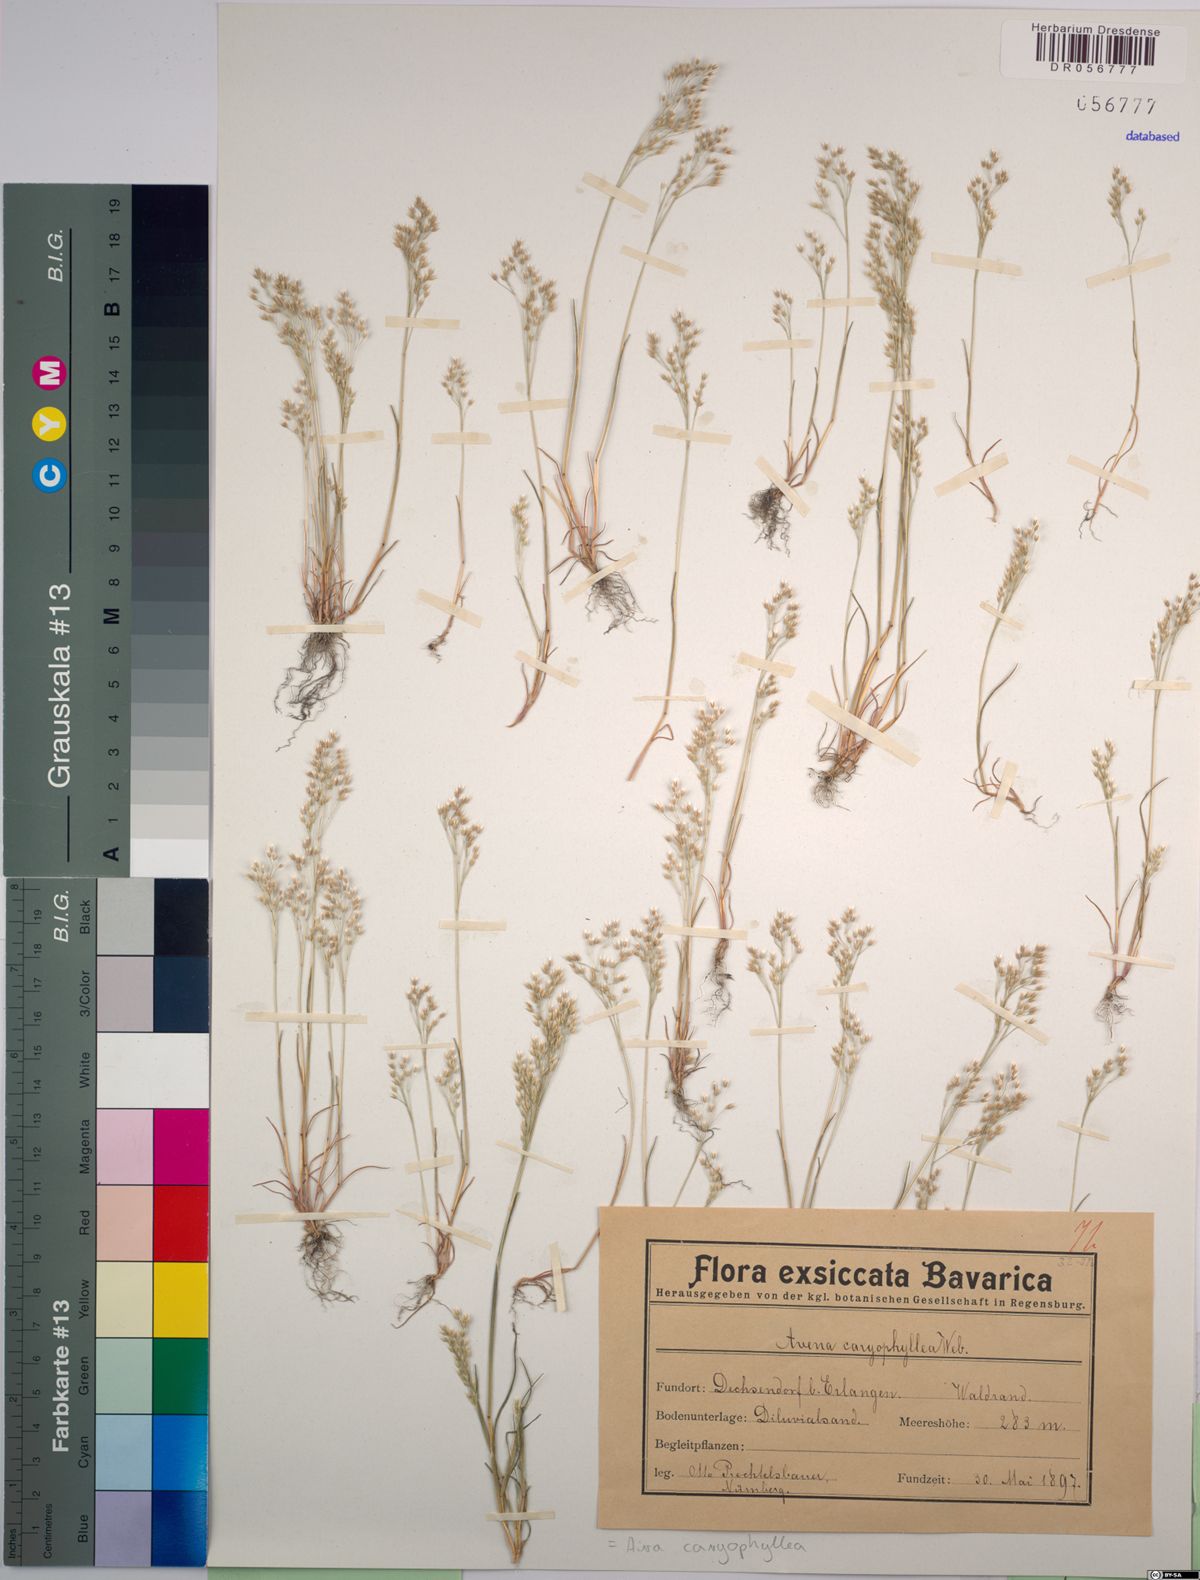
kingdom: Plantae
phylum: Tracheophyta
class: Liliopsida
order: Poales
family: Poaceae
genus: Aira
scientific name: Aira caryophyllea
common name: Silver hairgrass
